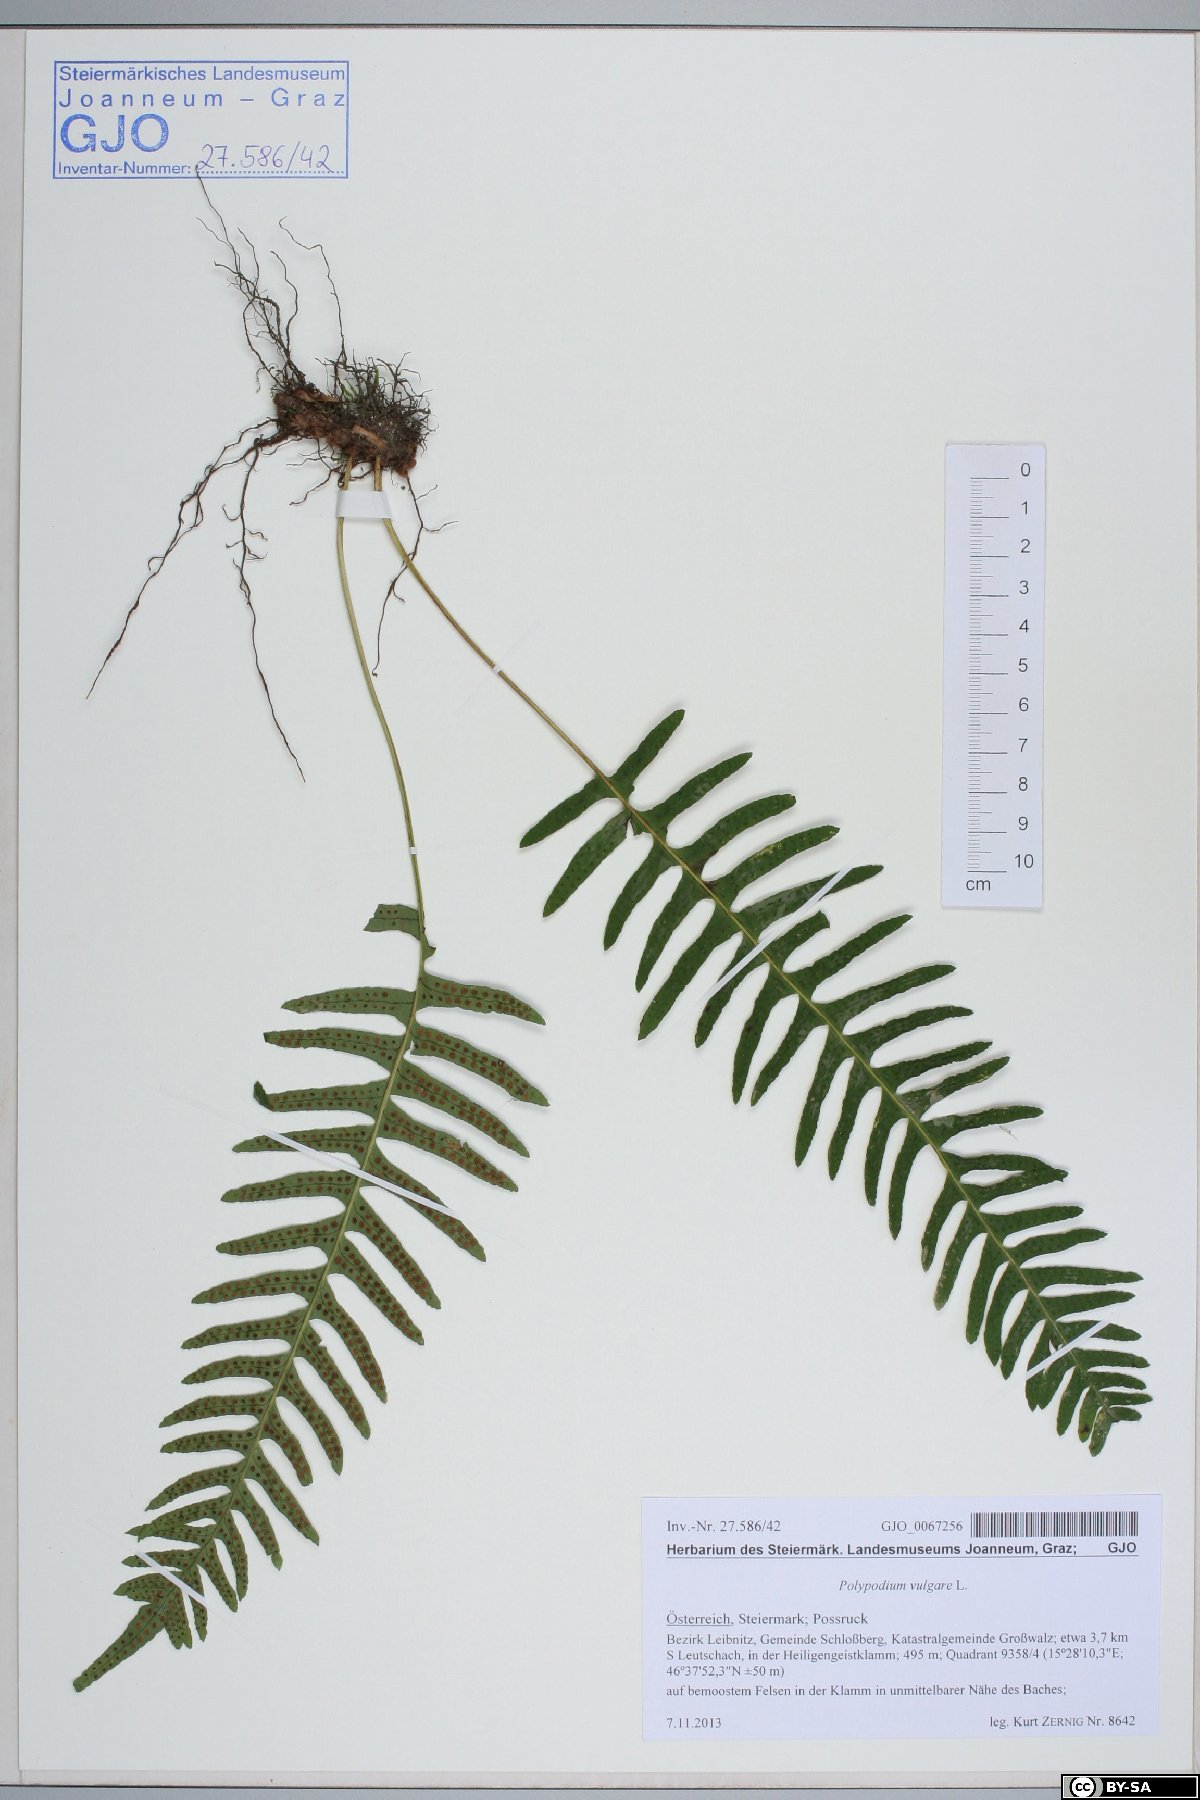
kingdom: Plantae
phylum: Tracheophyta
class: Polypodiopsida
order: Polypodiales
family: Polypodiaceae
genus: Polypodium
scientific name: Polypodium vulgare
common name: Common polypody
